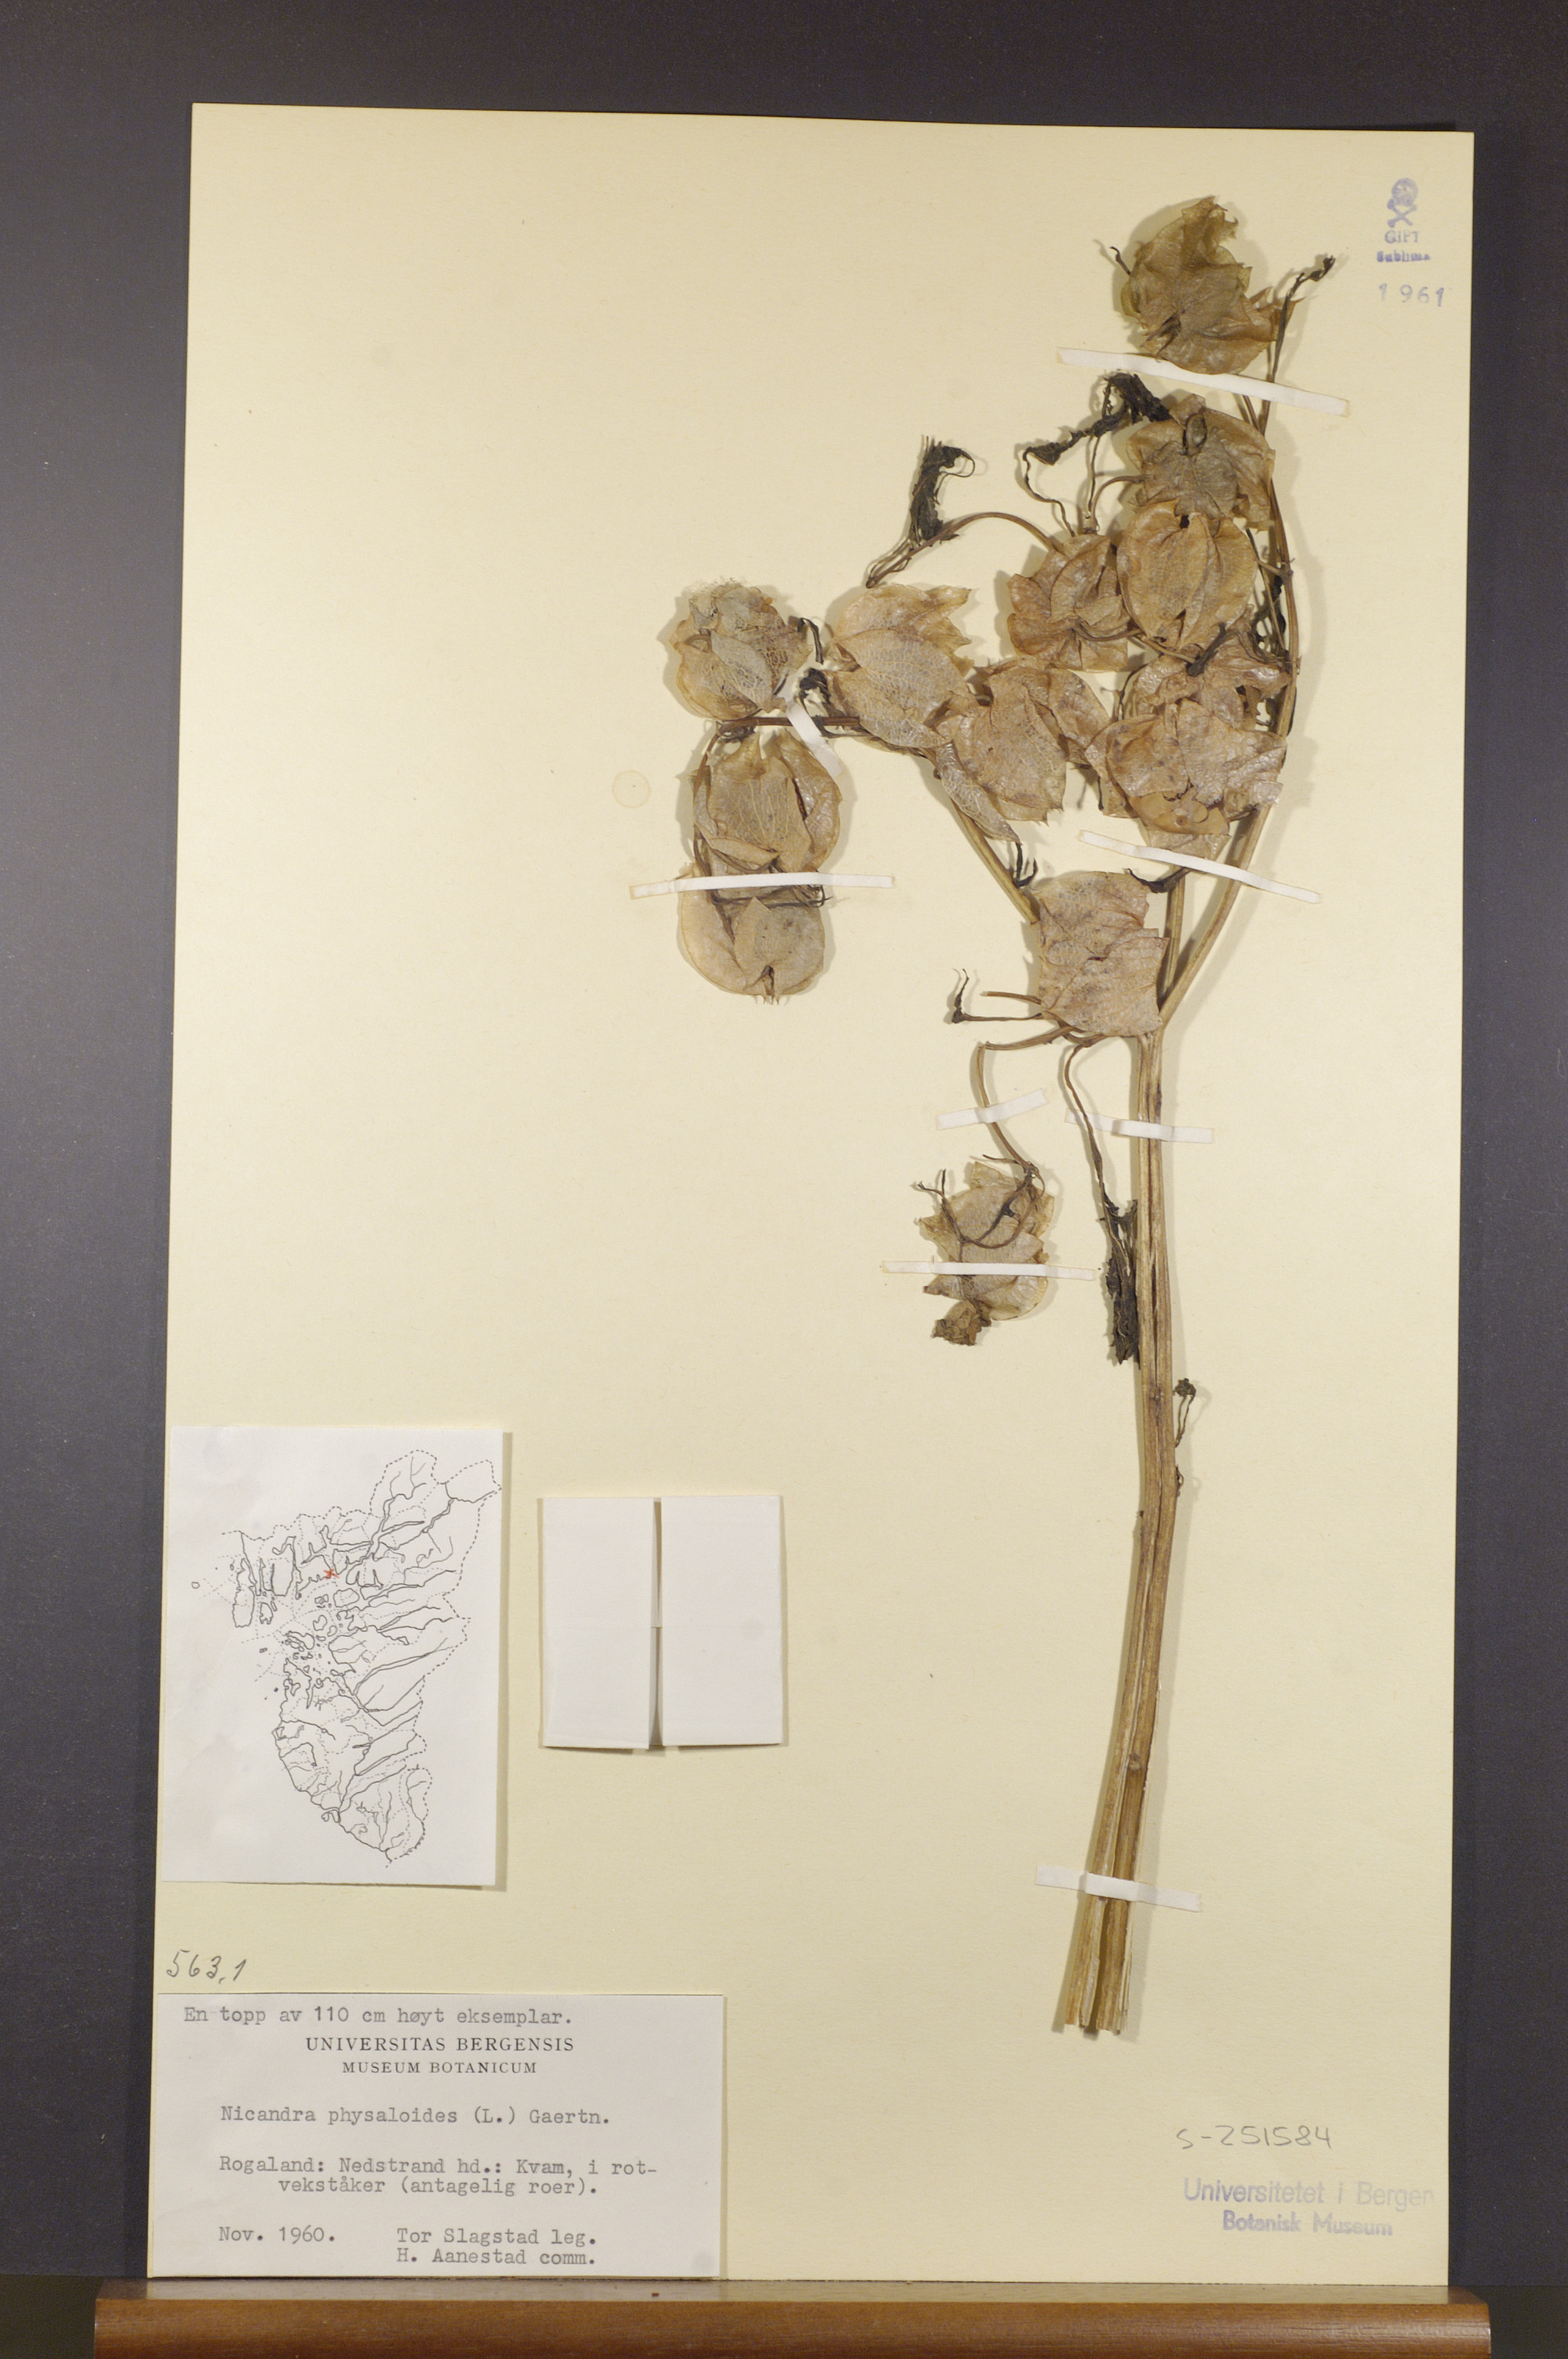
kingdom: Plantae
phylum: Tracheophyta
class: Magnoliopsida
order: Solanales
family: Solanaceae
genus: Nicandra
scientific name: Nicandra physalodes
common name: Apple-of-peru
